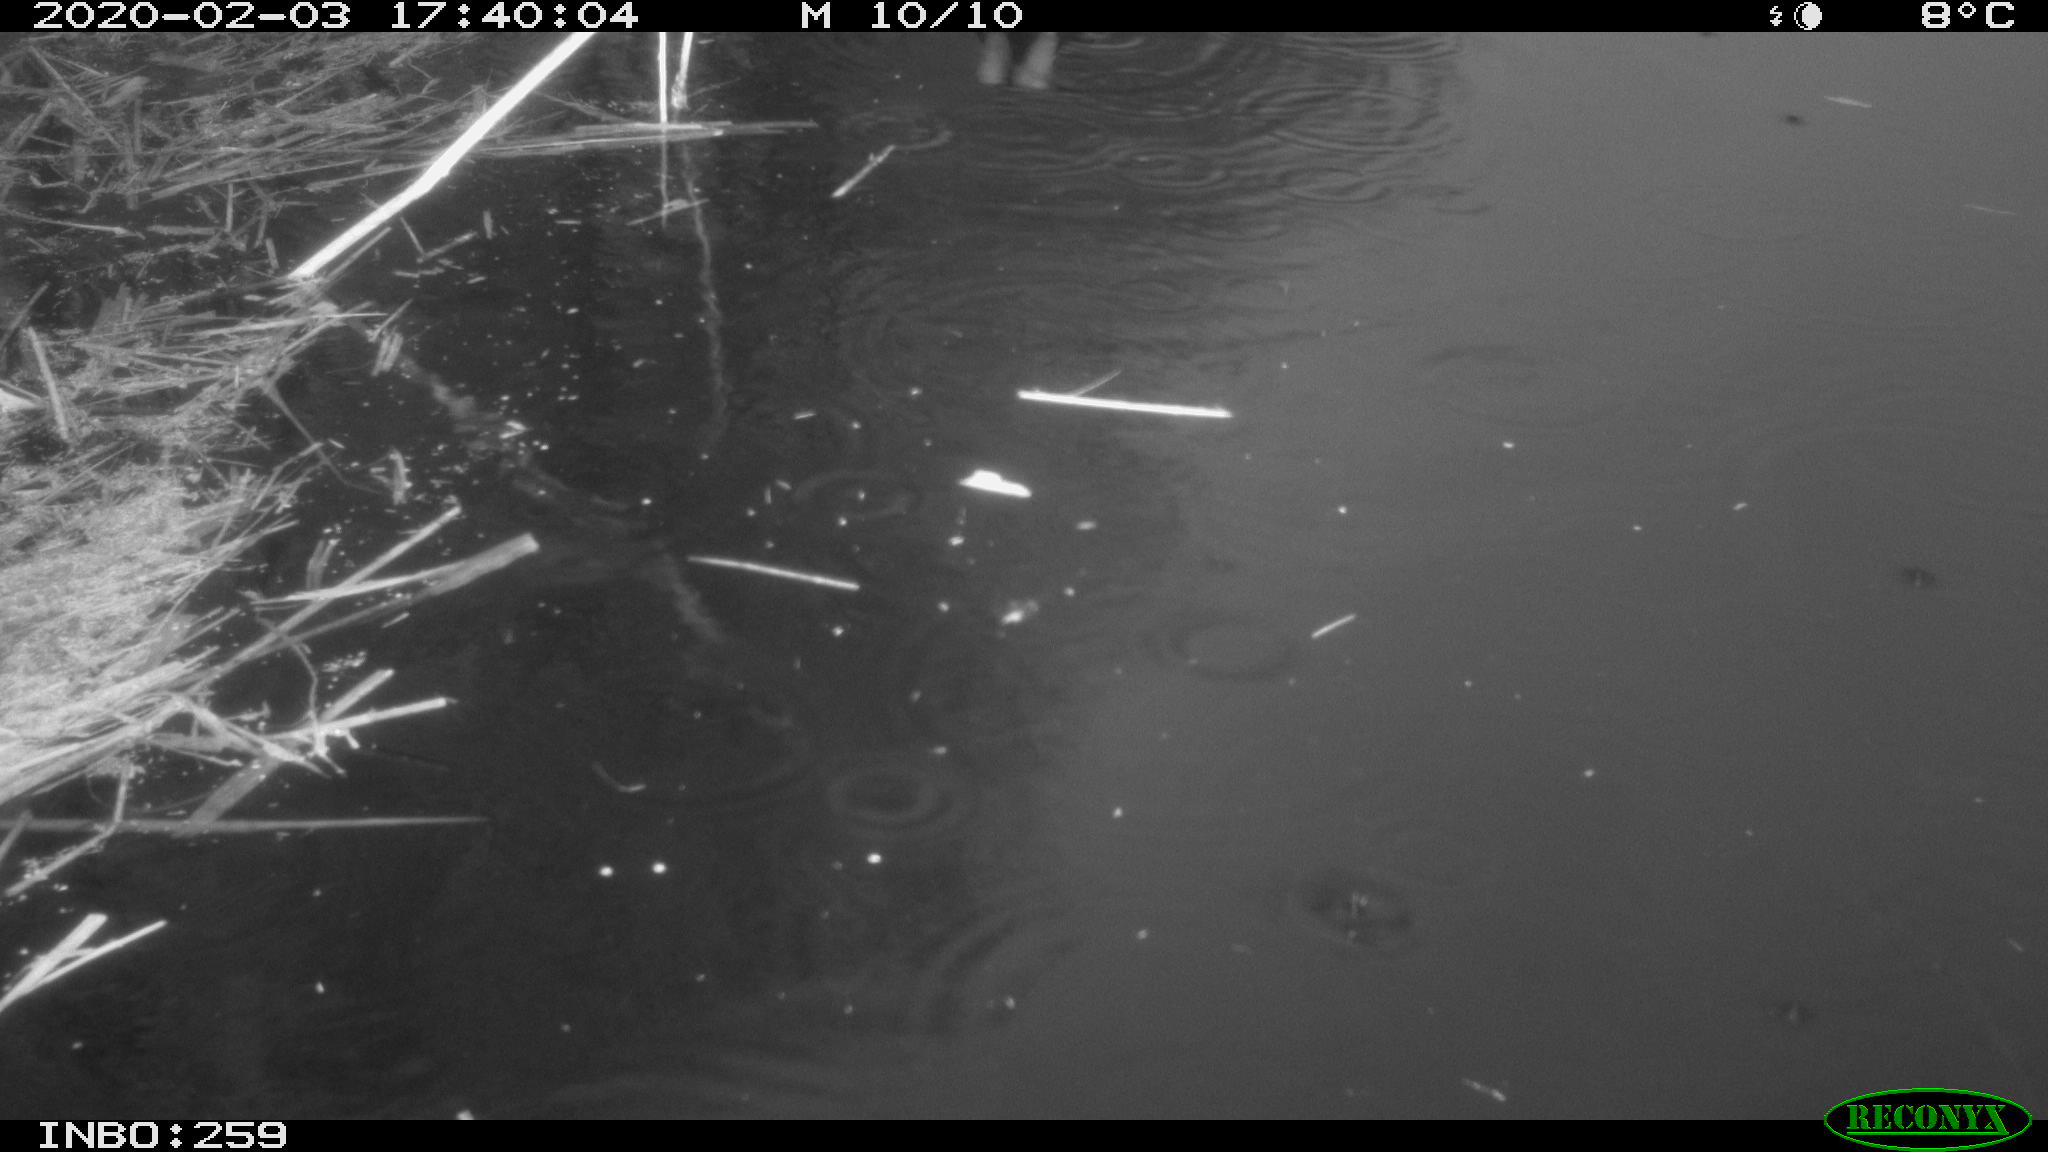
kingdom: Animalia
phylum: Chordata
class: Aves
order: Gruiformes
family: Rallidae
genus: Gallinula
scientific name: Gallinula chloropus
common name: Common moorhen
